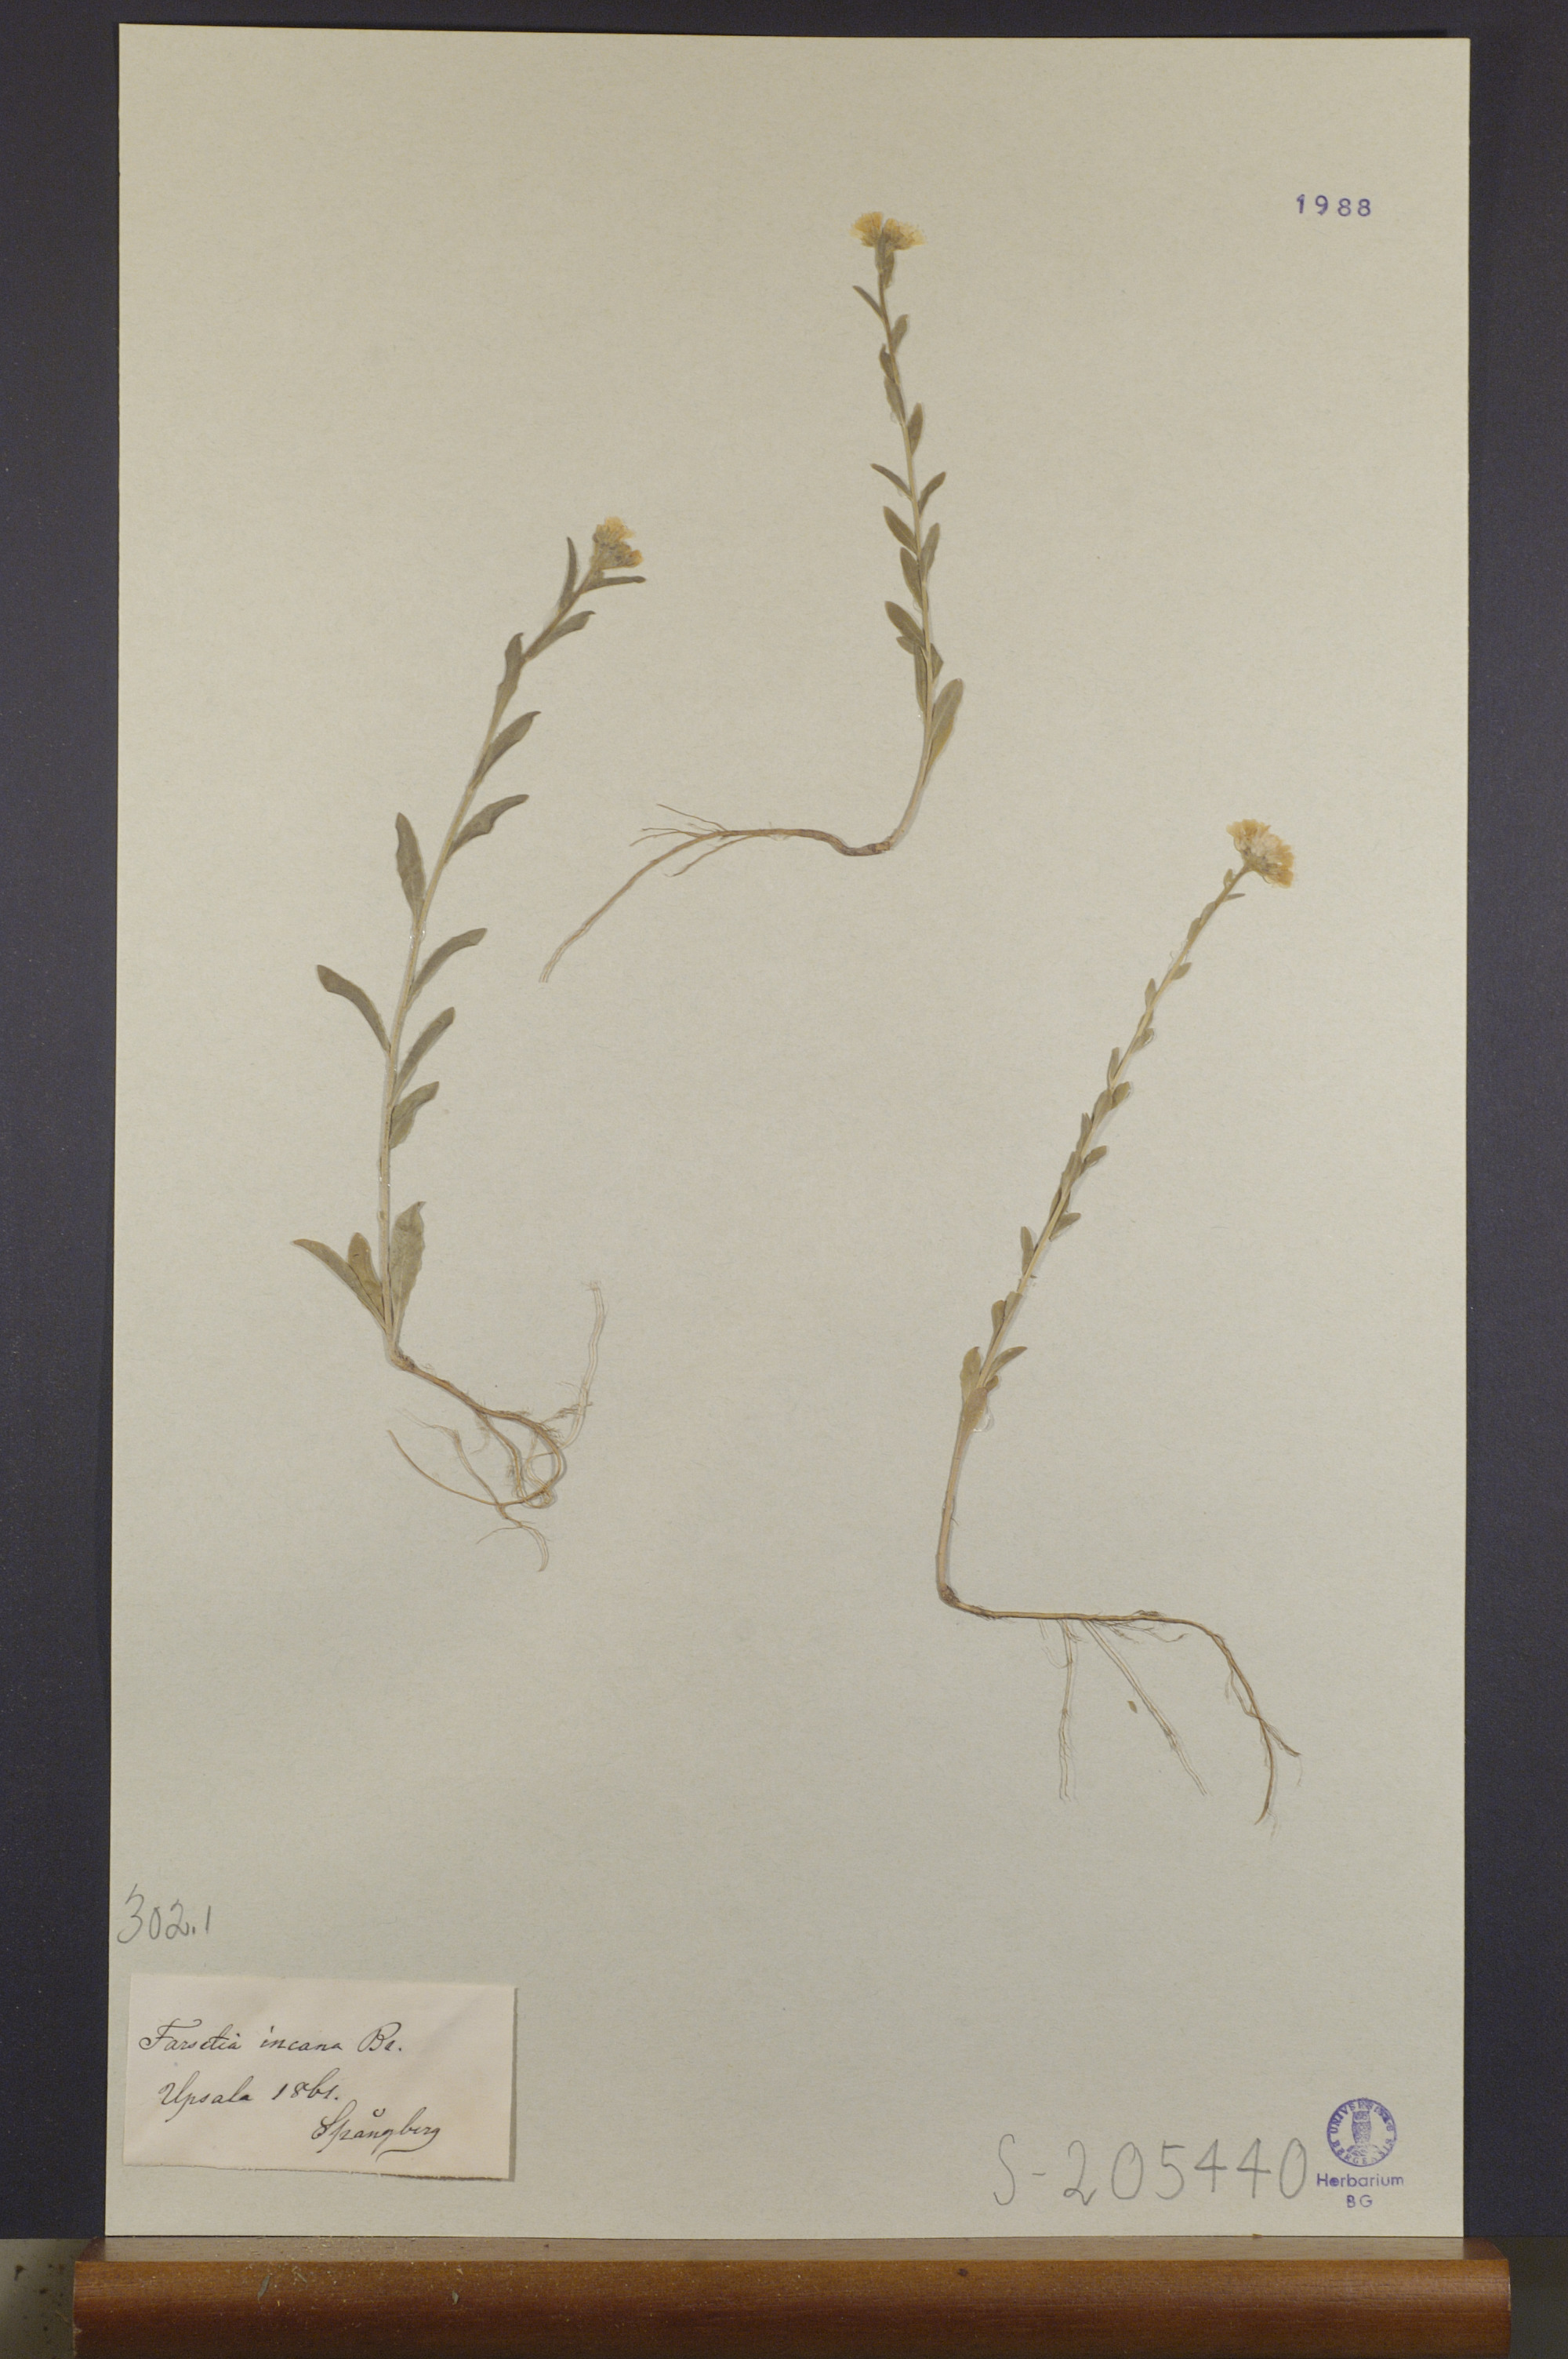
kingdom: Plantae
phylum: Tracheophyta
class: Magnoliopsida
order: Brassicales
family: Brassicaceae
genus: Berteroa
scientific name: Berteroa incana
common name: Hoary alison
